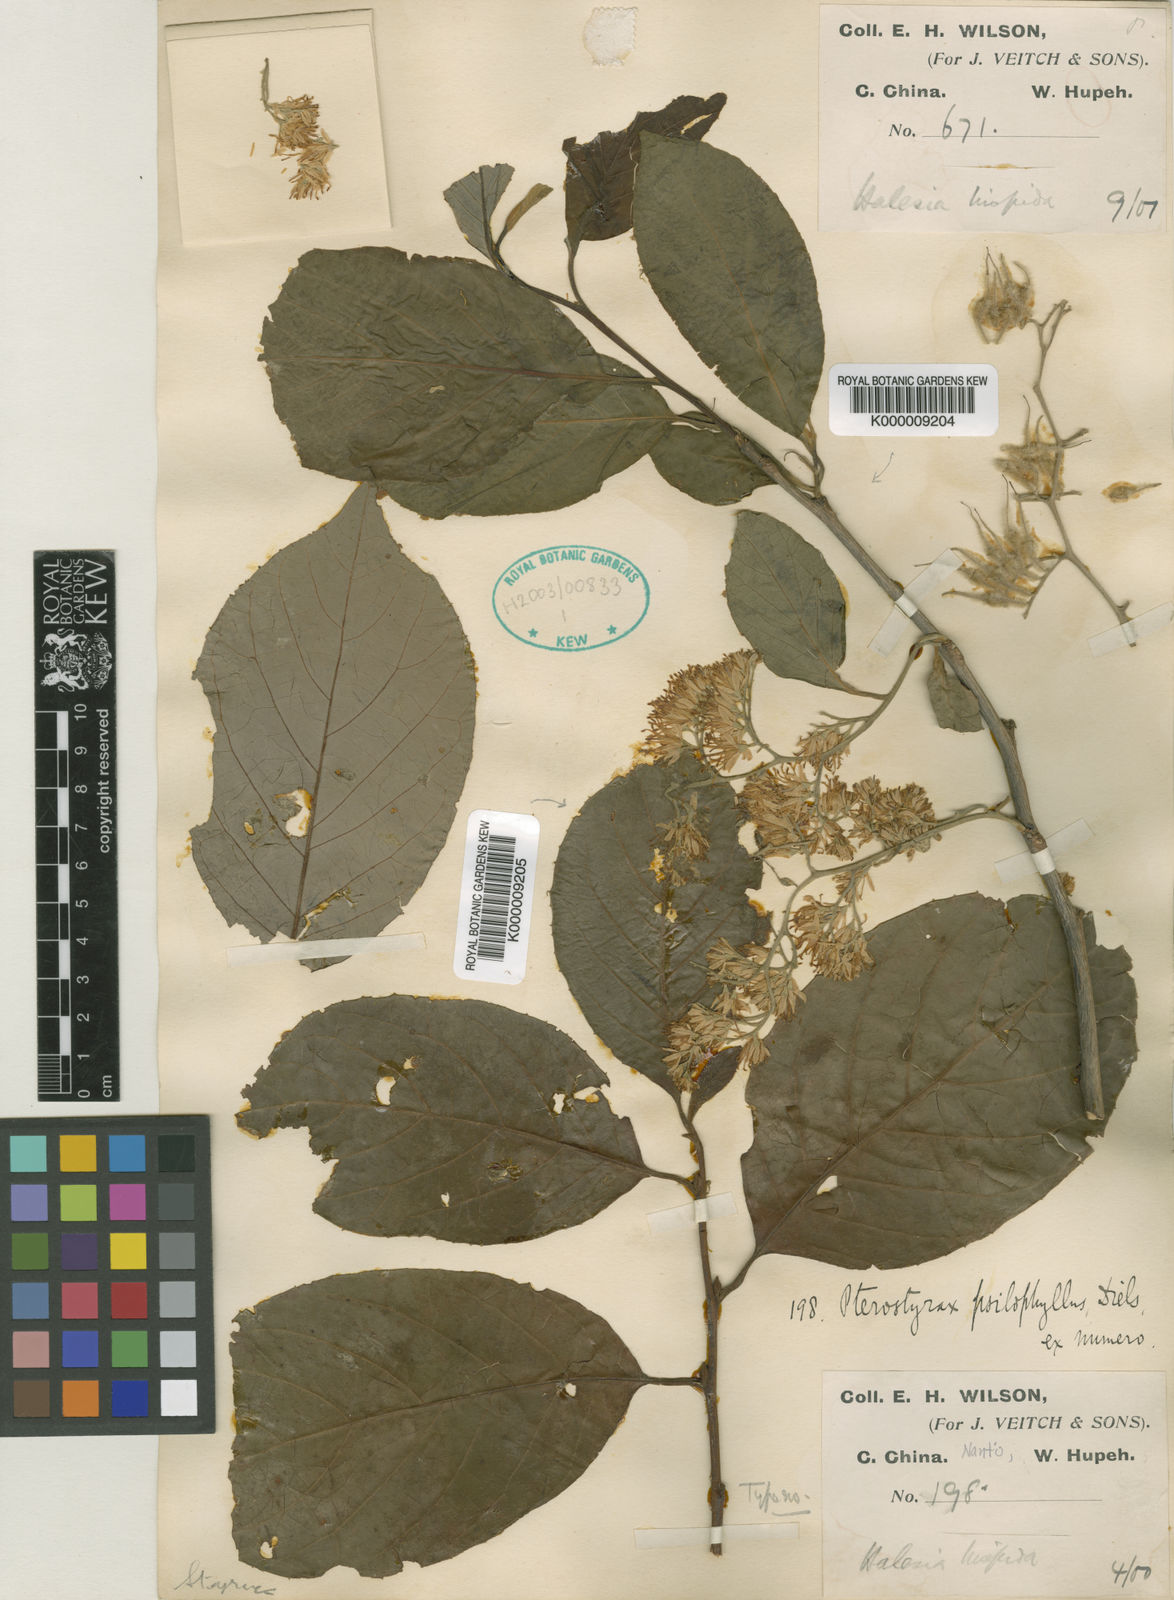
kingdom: Plantae
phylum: Tracheophyta
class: Magnoliopsida
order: Ericales
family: Styracaceae
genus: Pterostyrax
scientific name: Pterostyrax psilophyllus
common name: Small epaulette tree
